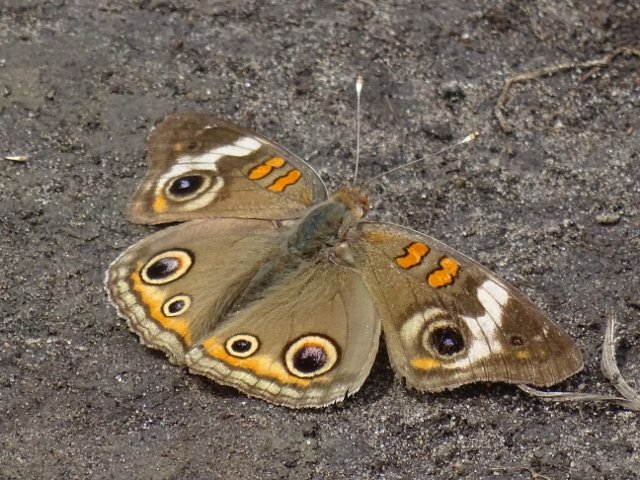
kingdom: Animalia
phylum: Arthropoda
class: Insecta
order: Lepidoptera
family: Nymphalidae
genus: Junonia
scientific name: Junonia coenia
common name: Common Buckeye
